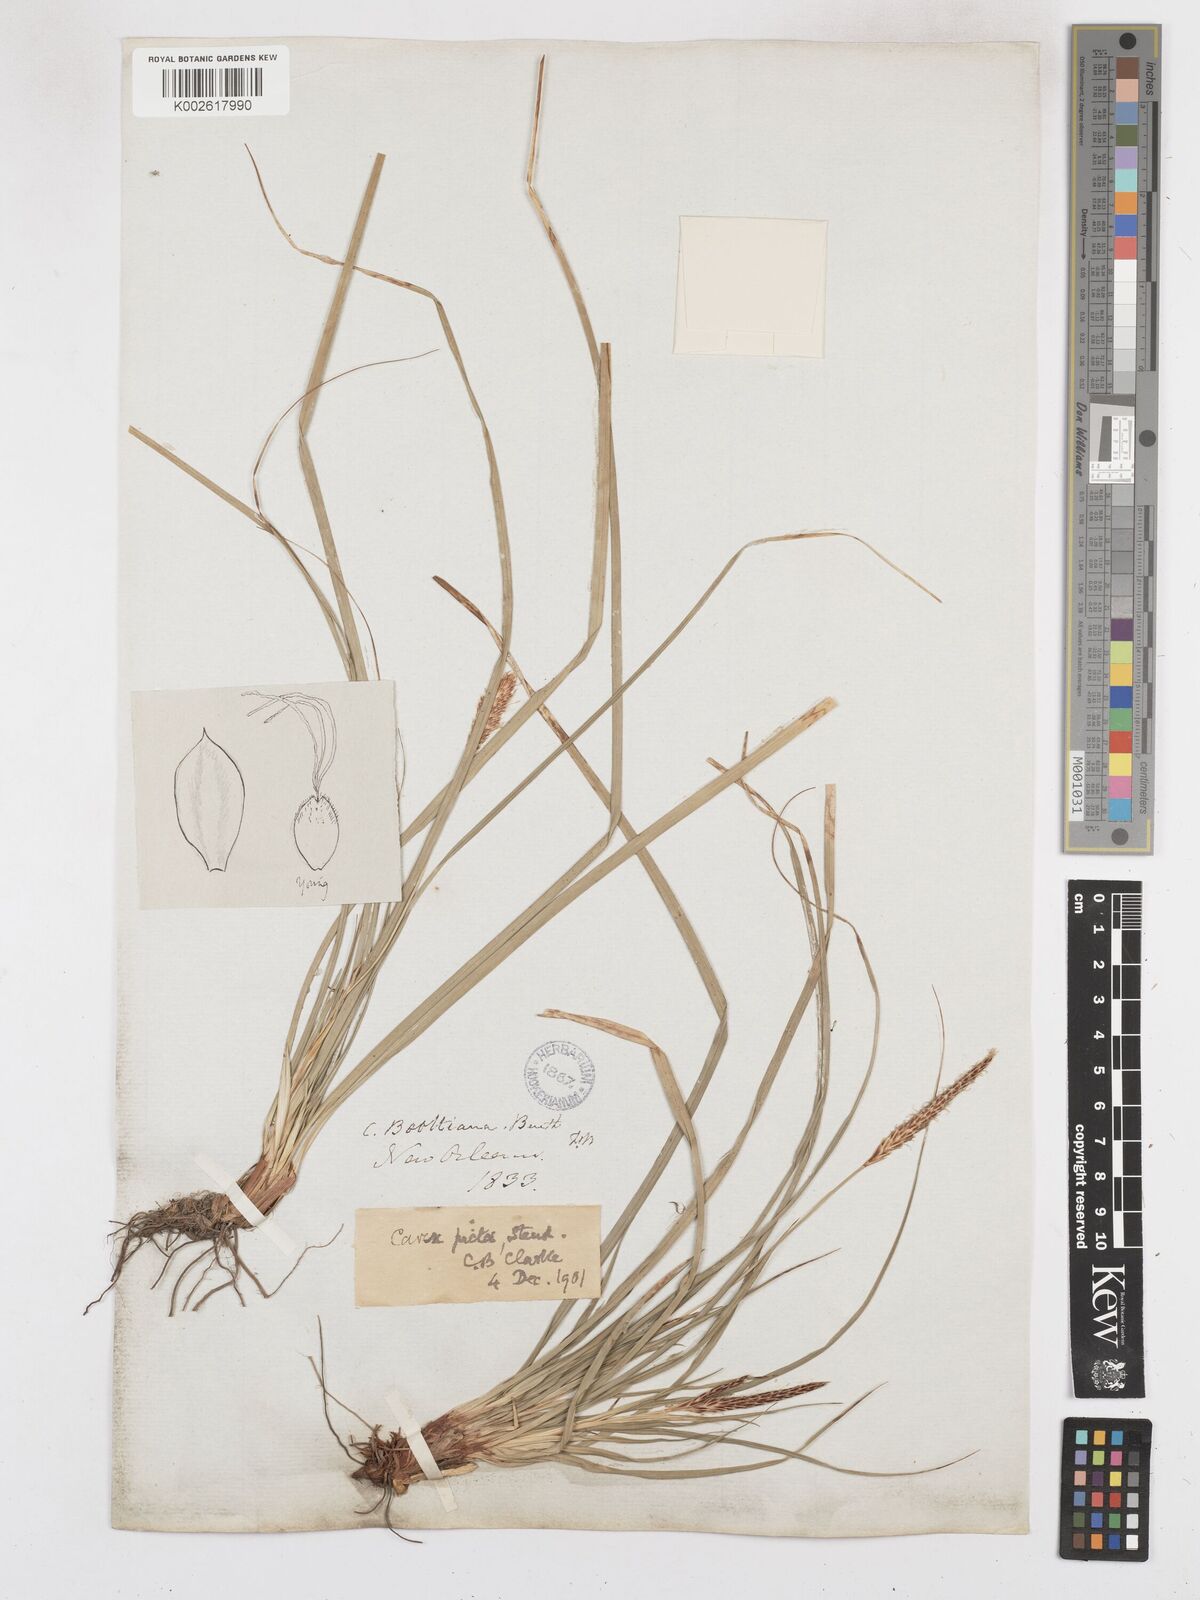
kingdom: Plantae
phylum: Tracheophyta
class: Liliopsida
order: Poales
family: Cyperaceae
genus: Carex
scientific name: Carex picta
